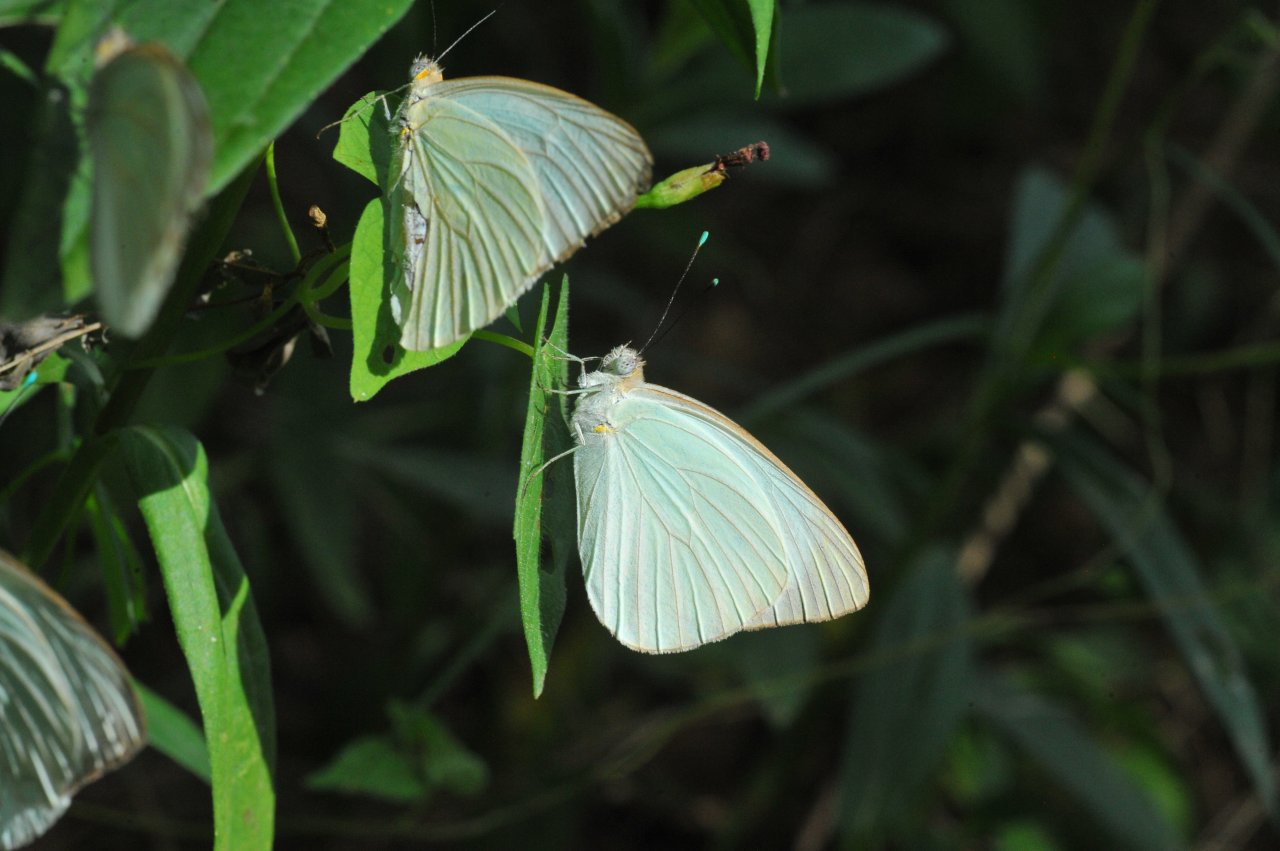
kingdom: Animalia
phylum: Arthropoda
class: Insecta
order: Lepidoptera
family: Pieridae
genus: Ascia
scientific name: Ascia monuste
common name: Great Southern White
